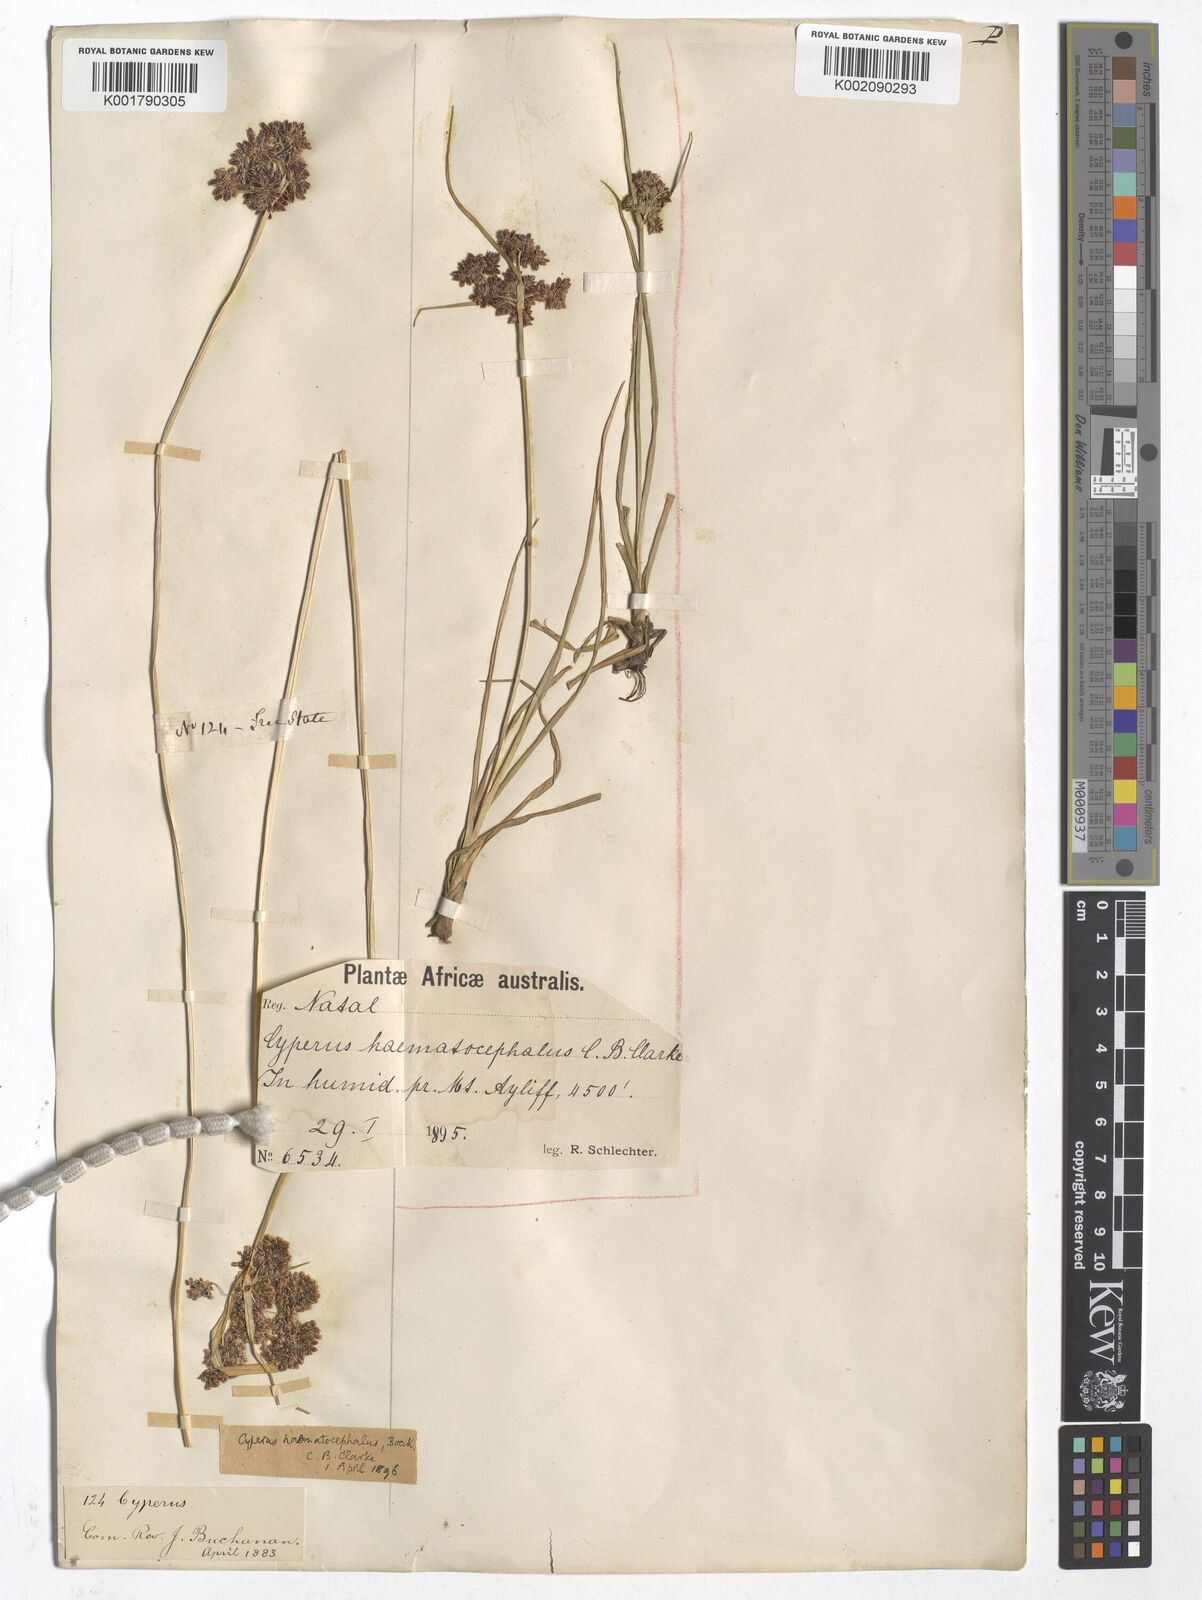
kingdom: Plantae
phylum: Tracheophyta
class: Liliopsida
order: Poales
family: Cyperaceae
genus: Cyperus
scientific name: Cyperus haematocephalus
